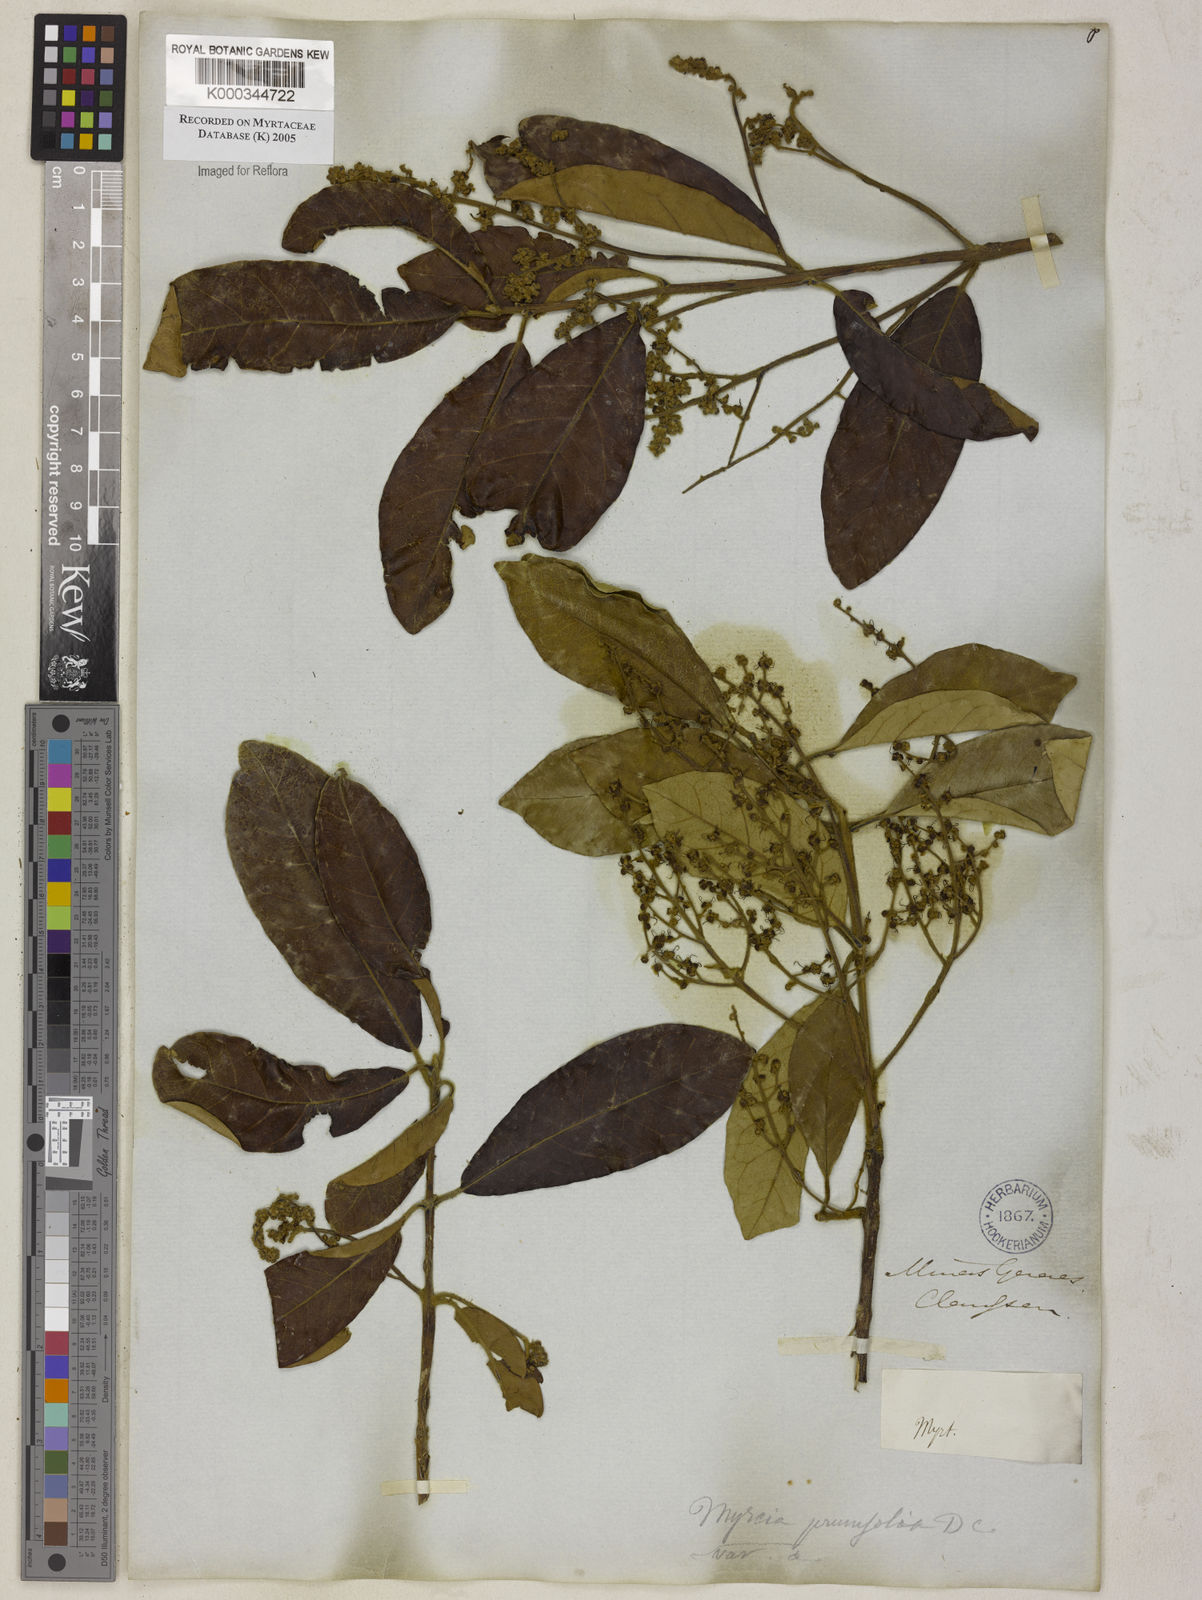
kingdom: Plantae
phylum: Tracheophyta
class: Magnoliopsida
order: Myrtales
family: Myrtaceae
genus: Myrcia
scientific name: Myrcia tomentosa
